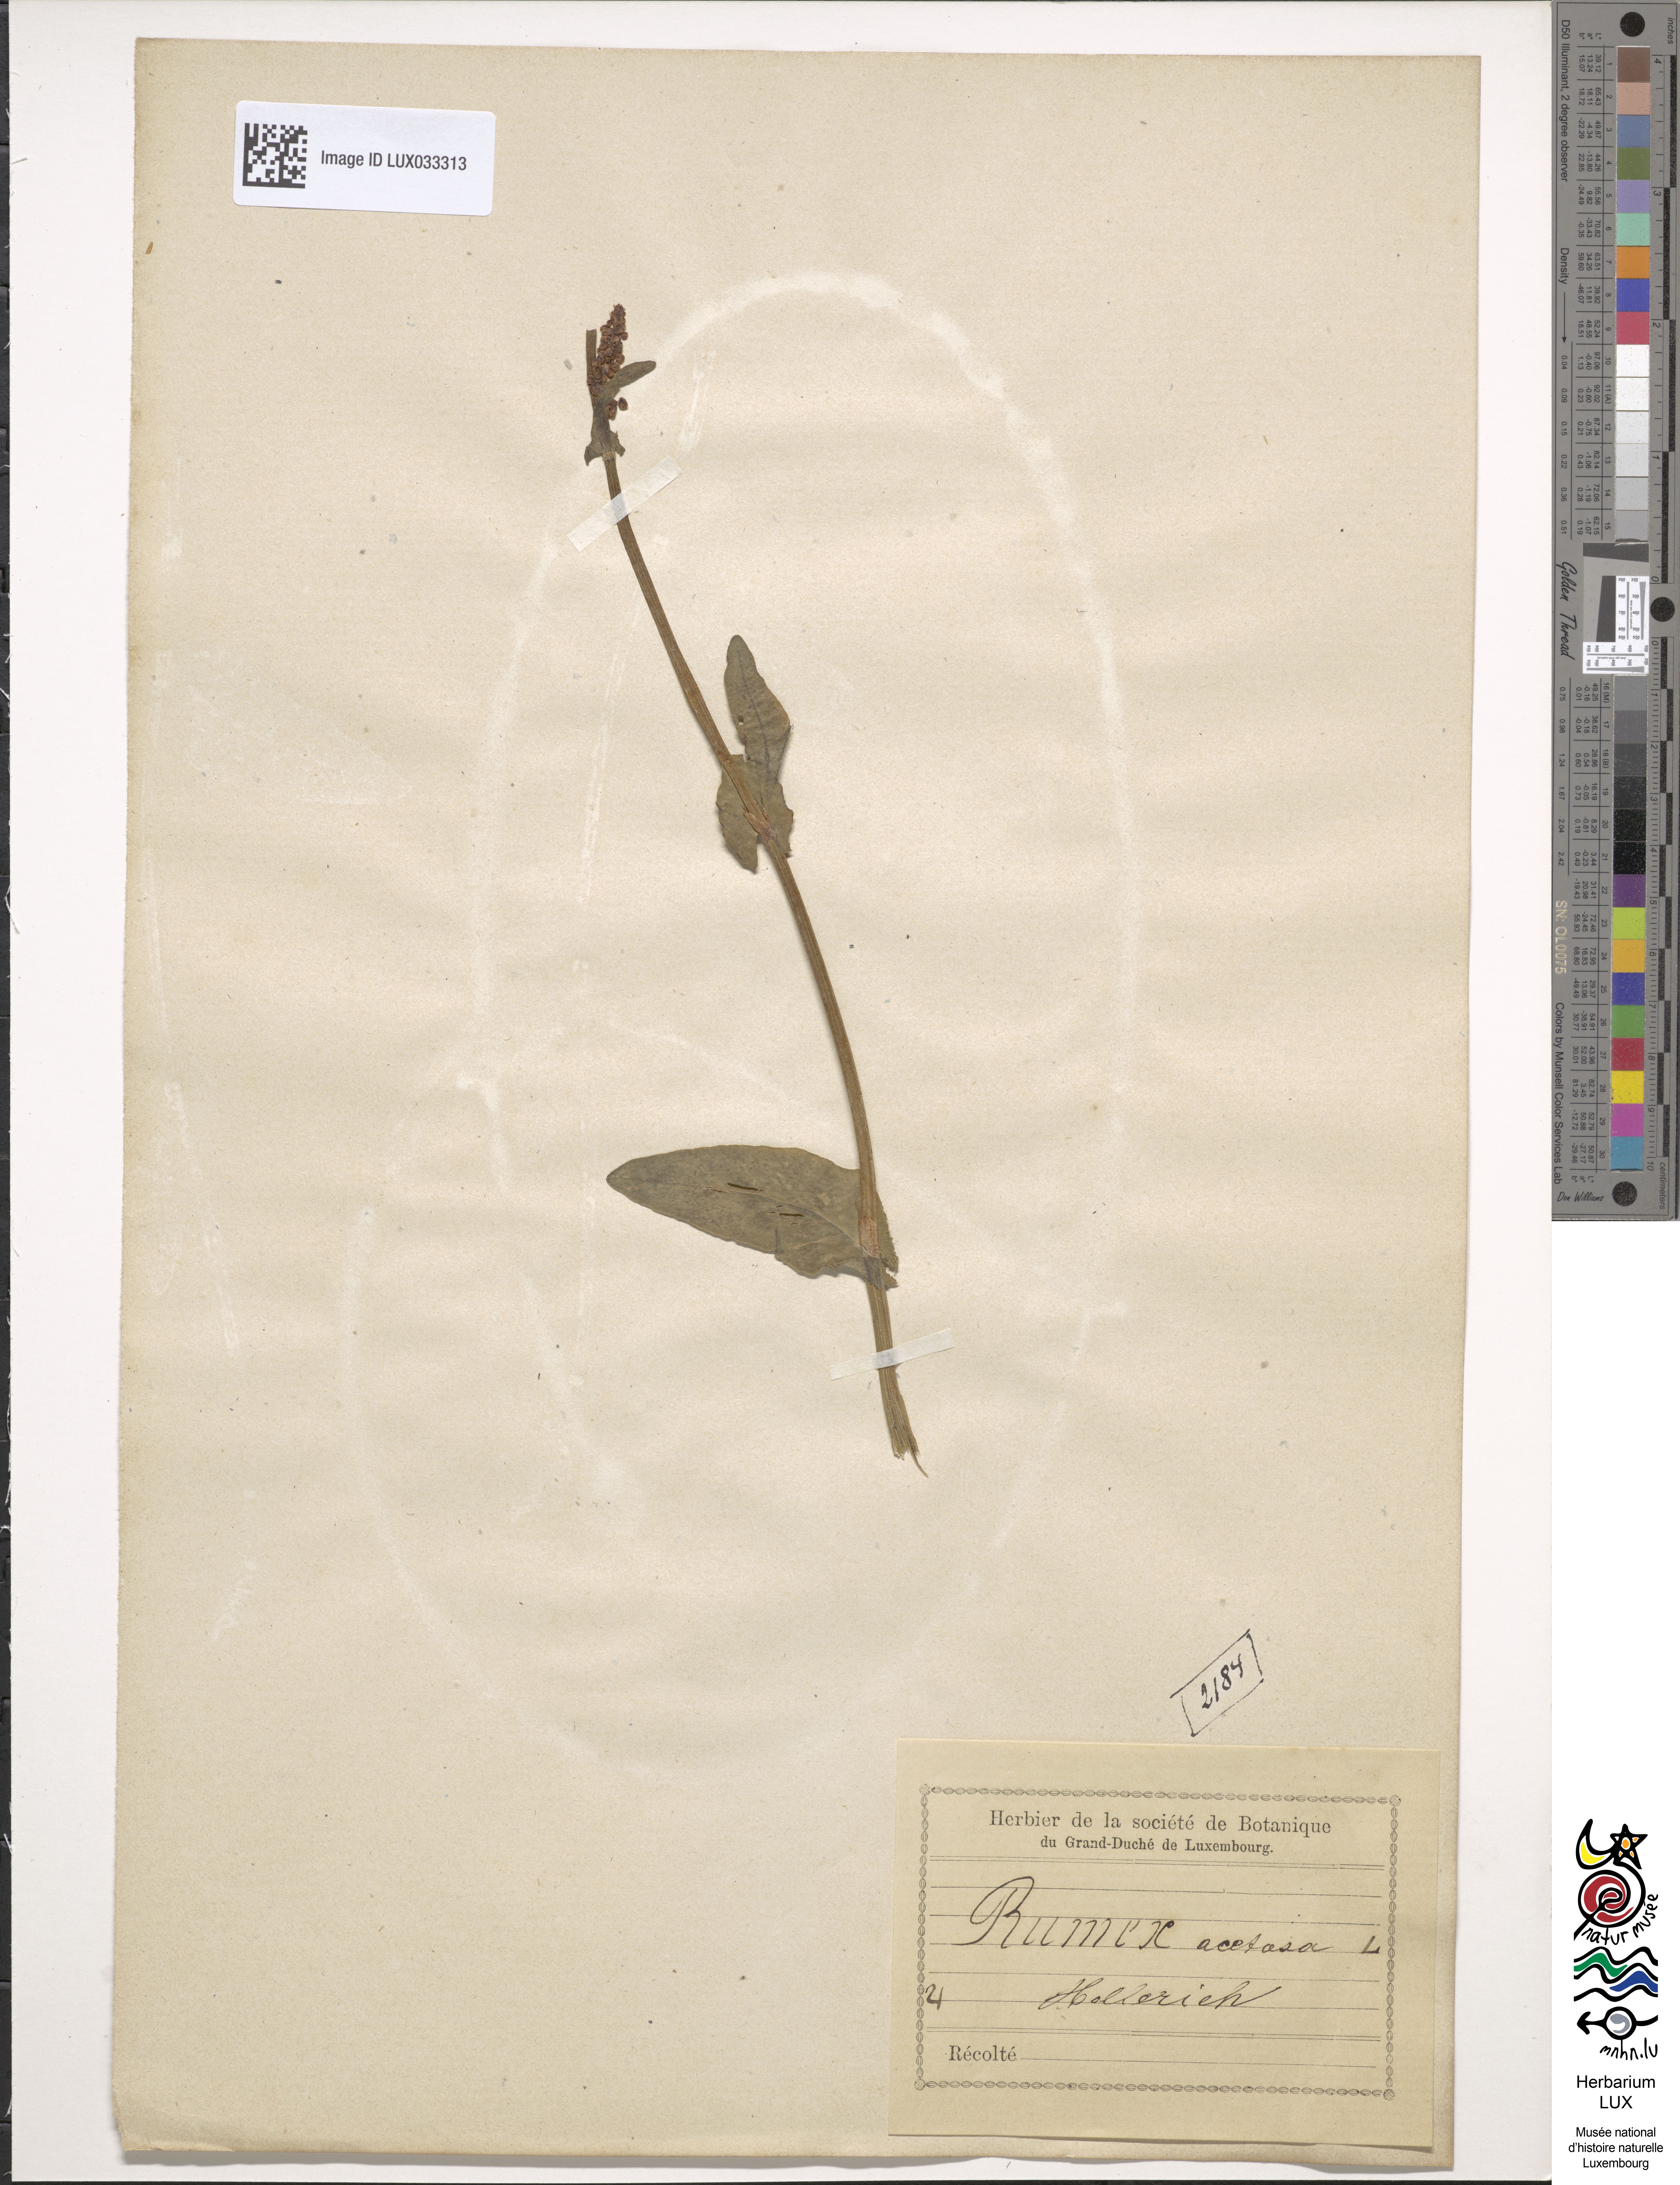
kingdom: Plantae
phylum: Tracheophyta
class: Magnoliopsida
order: Caryophyllales
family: Polygonaceae
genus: Rumex
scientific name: Rumex acetosa
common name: Garden sorrel
